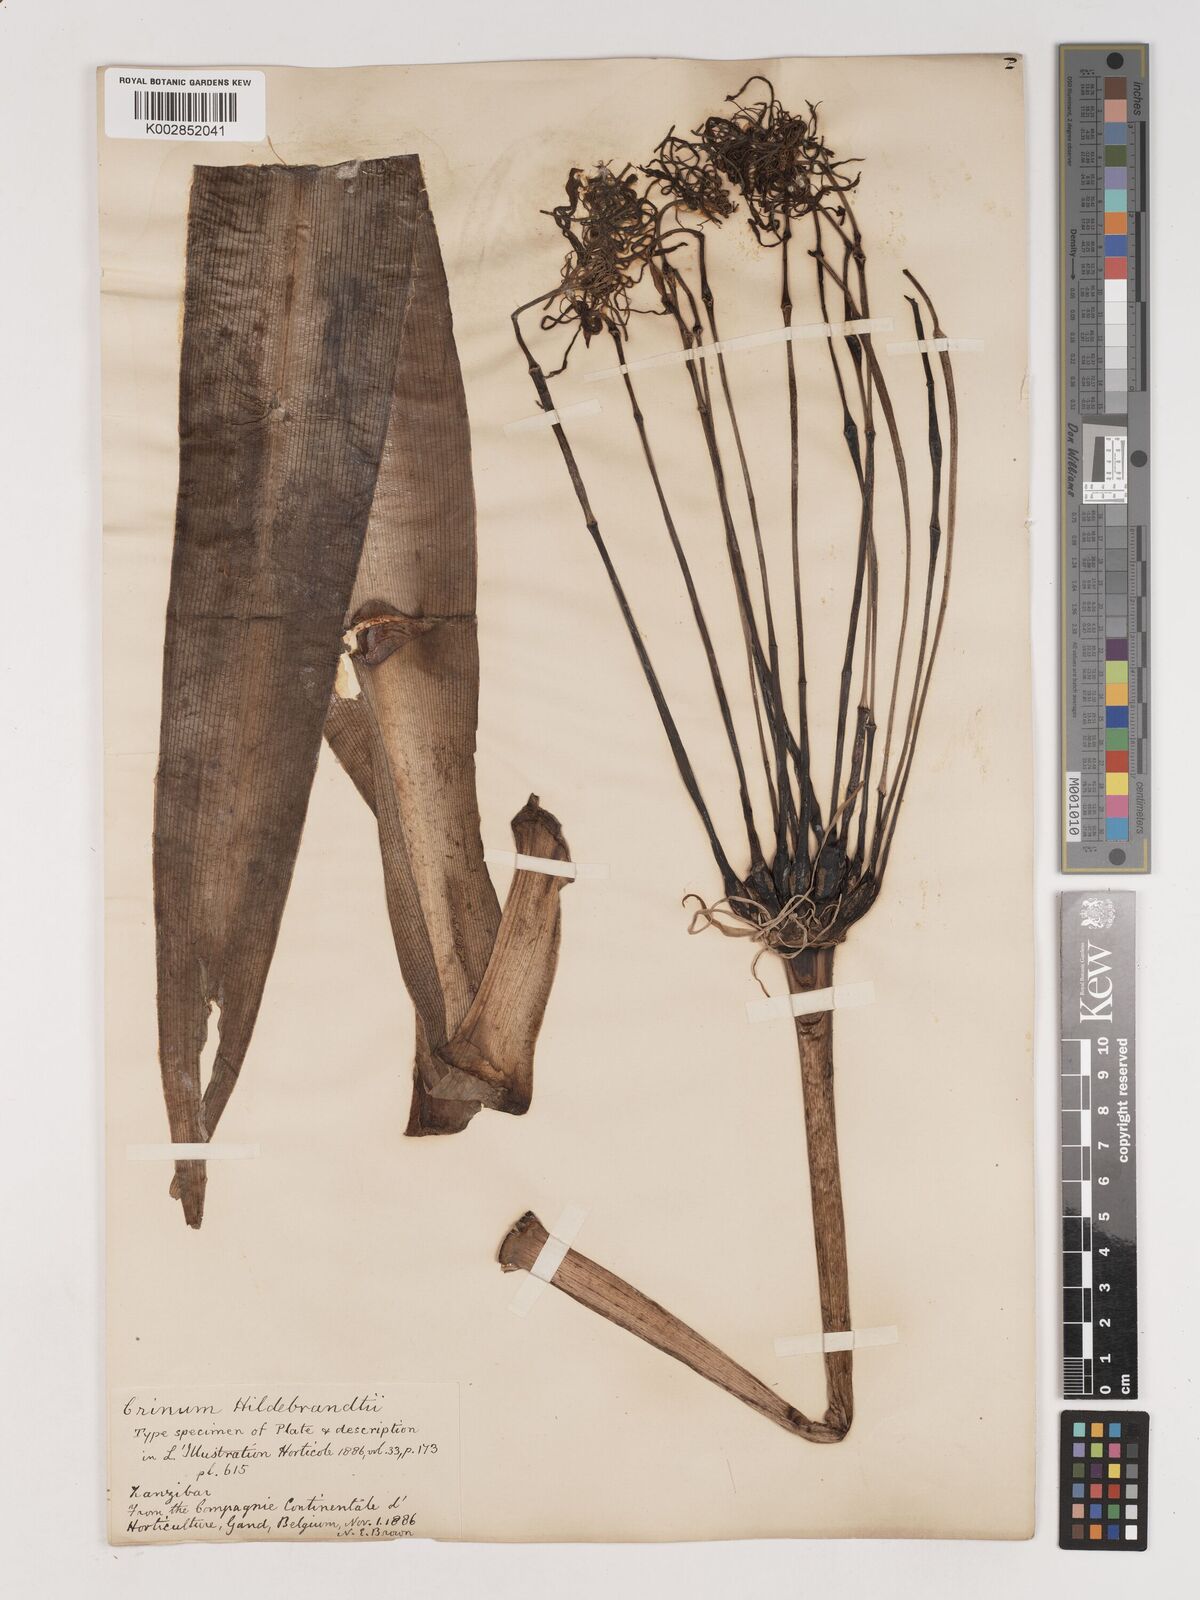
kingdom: Plantae
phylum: Tracheophyta
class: Liliopsida
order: Asparagales
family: Amaryllidaceae
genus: Crinum
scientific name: Crinum hildebrandtii
